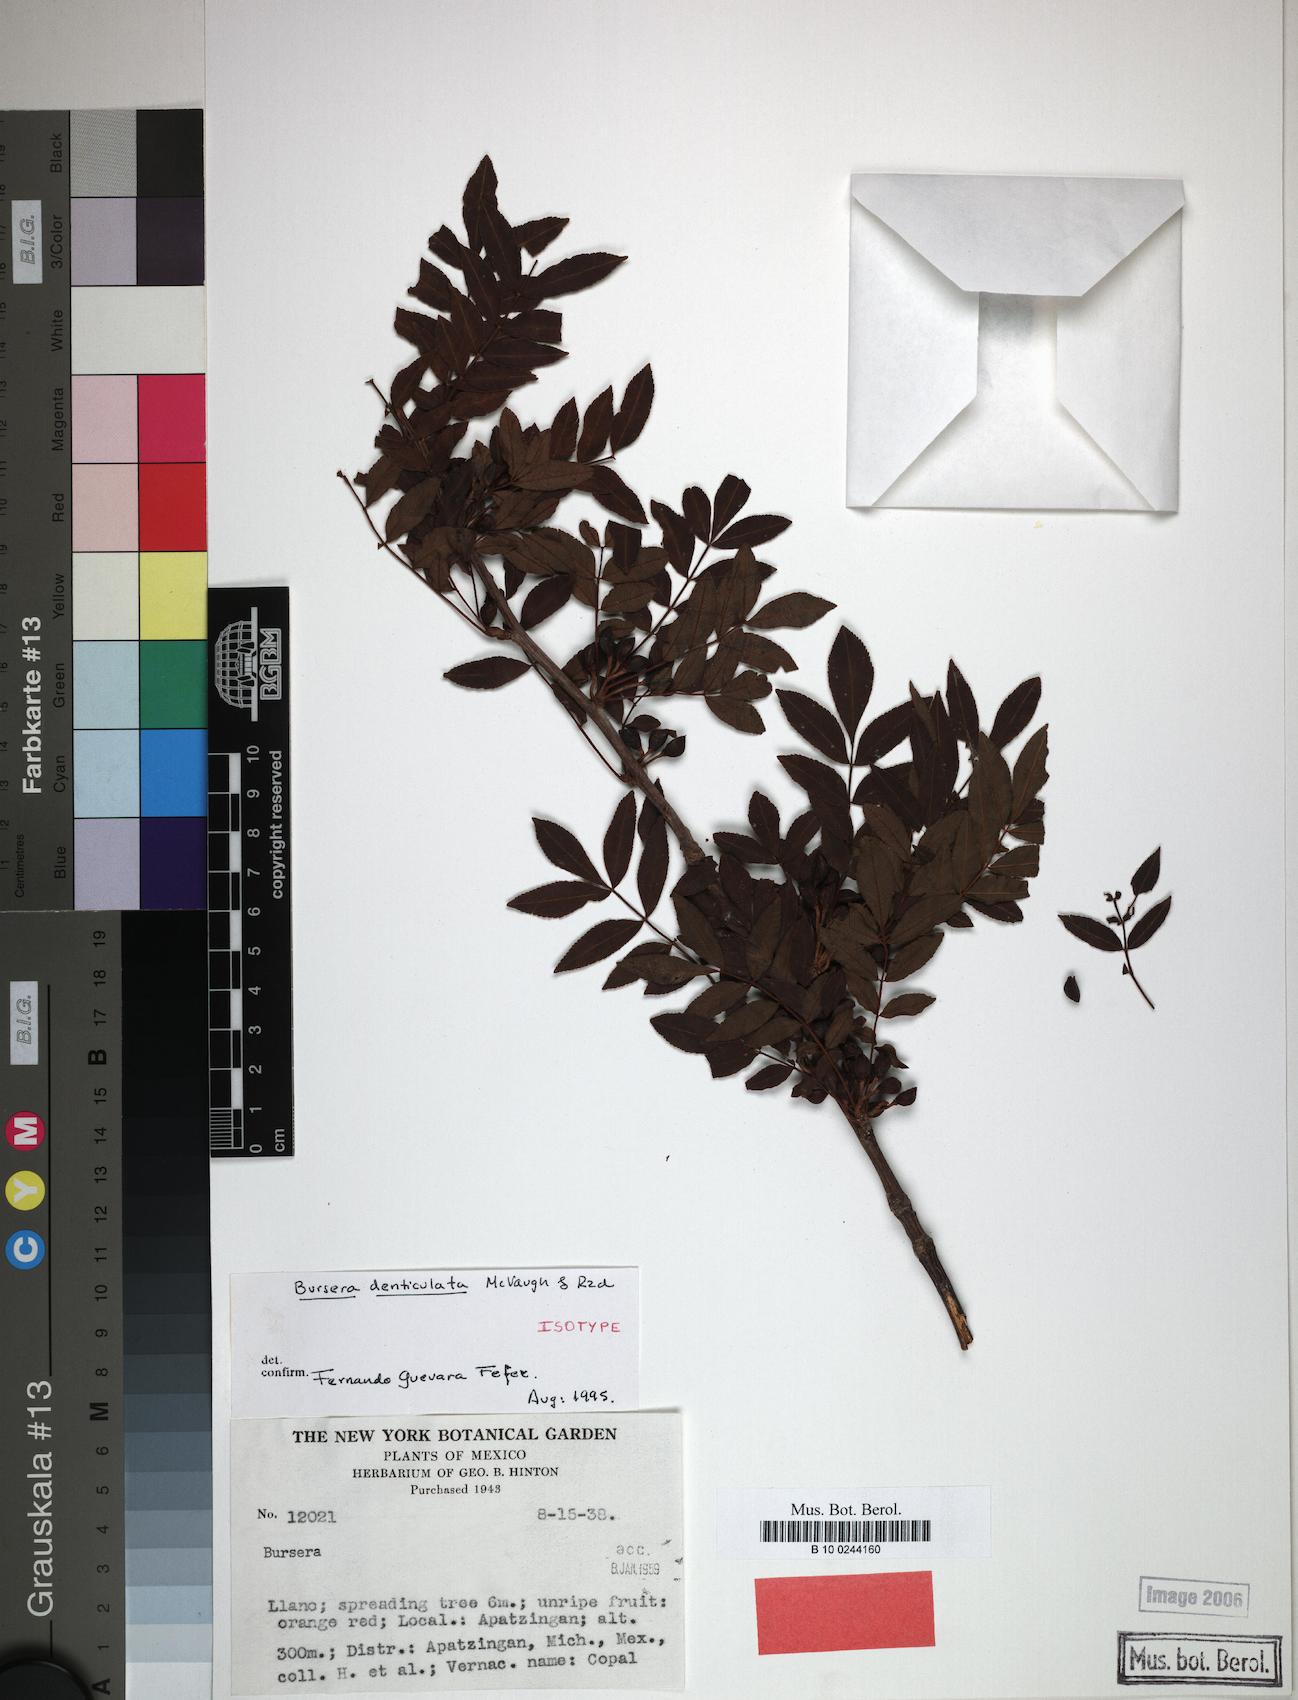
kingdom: Plantae
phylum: Tracheophyta
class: Magnoliopsida
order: Sapindales
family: Burseraceae
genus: Bursera
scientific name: Bursera denticulata
